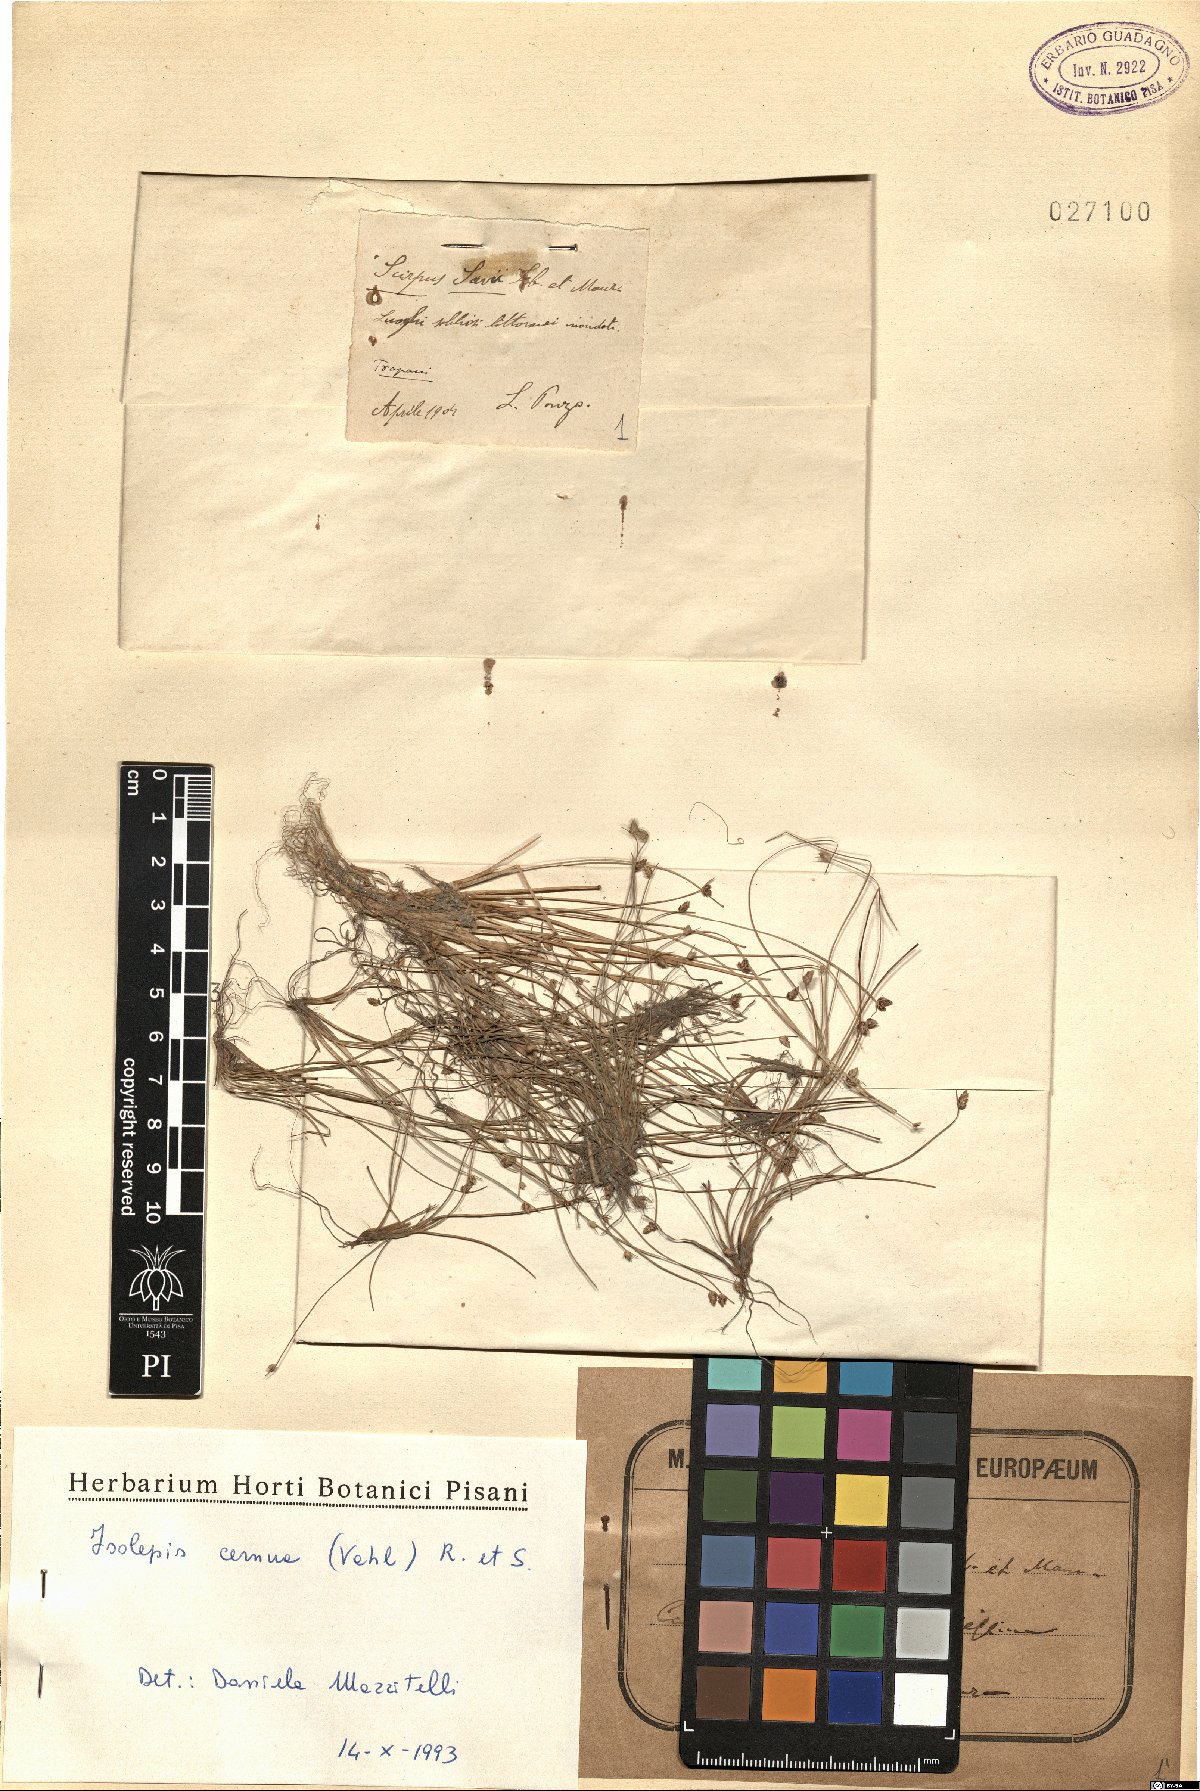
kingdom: Plantae
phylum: Tracheophyta
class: Liliopsida
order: Poales
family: Cyperaceae
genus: Isolepis
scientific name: Isolepis cernua
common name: Slender club-rush
